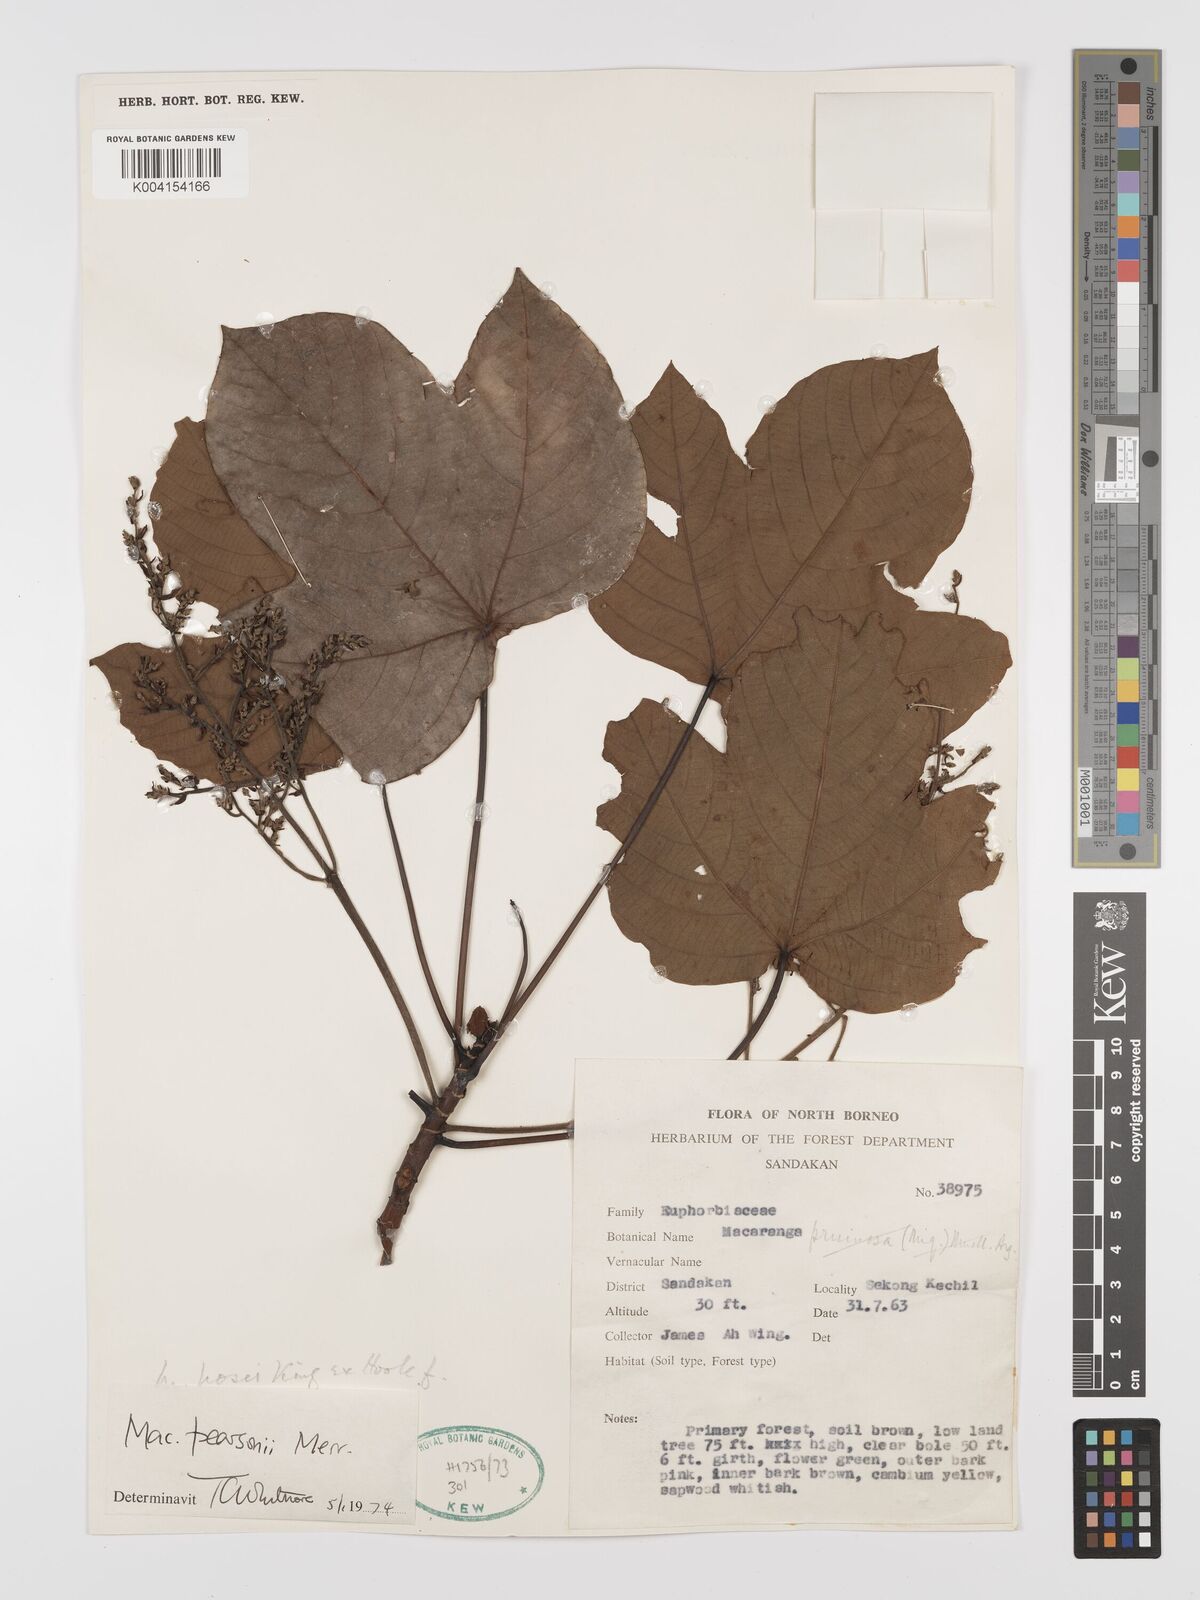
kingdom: Plantae
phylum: Tracheophyta
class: Magnoliopsida
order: Malpighiales
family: Euphorbiaceae
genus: Macaranga
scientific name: Macaranga pearsonii
